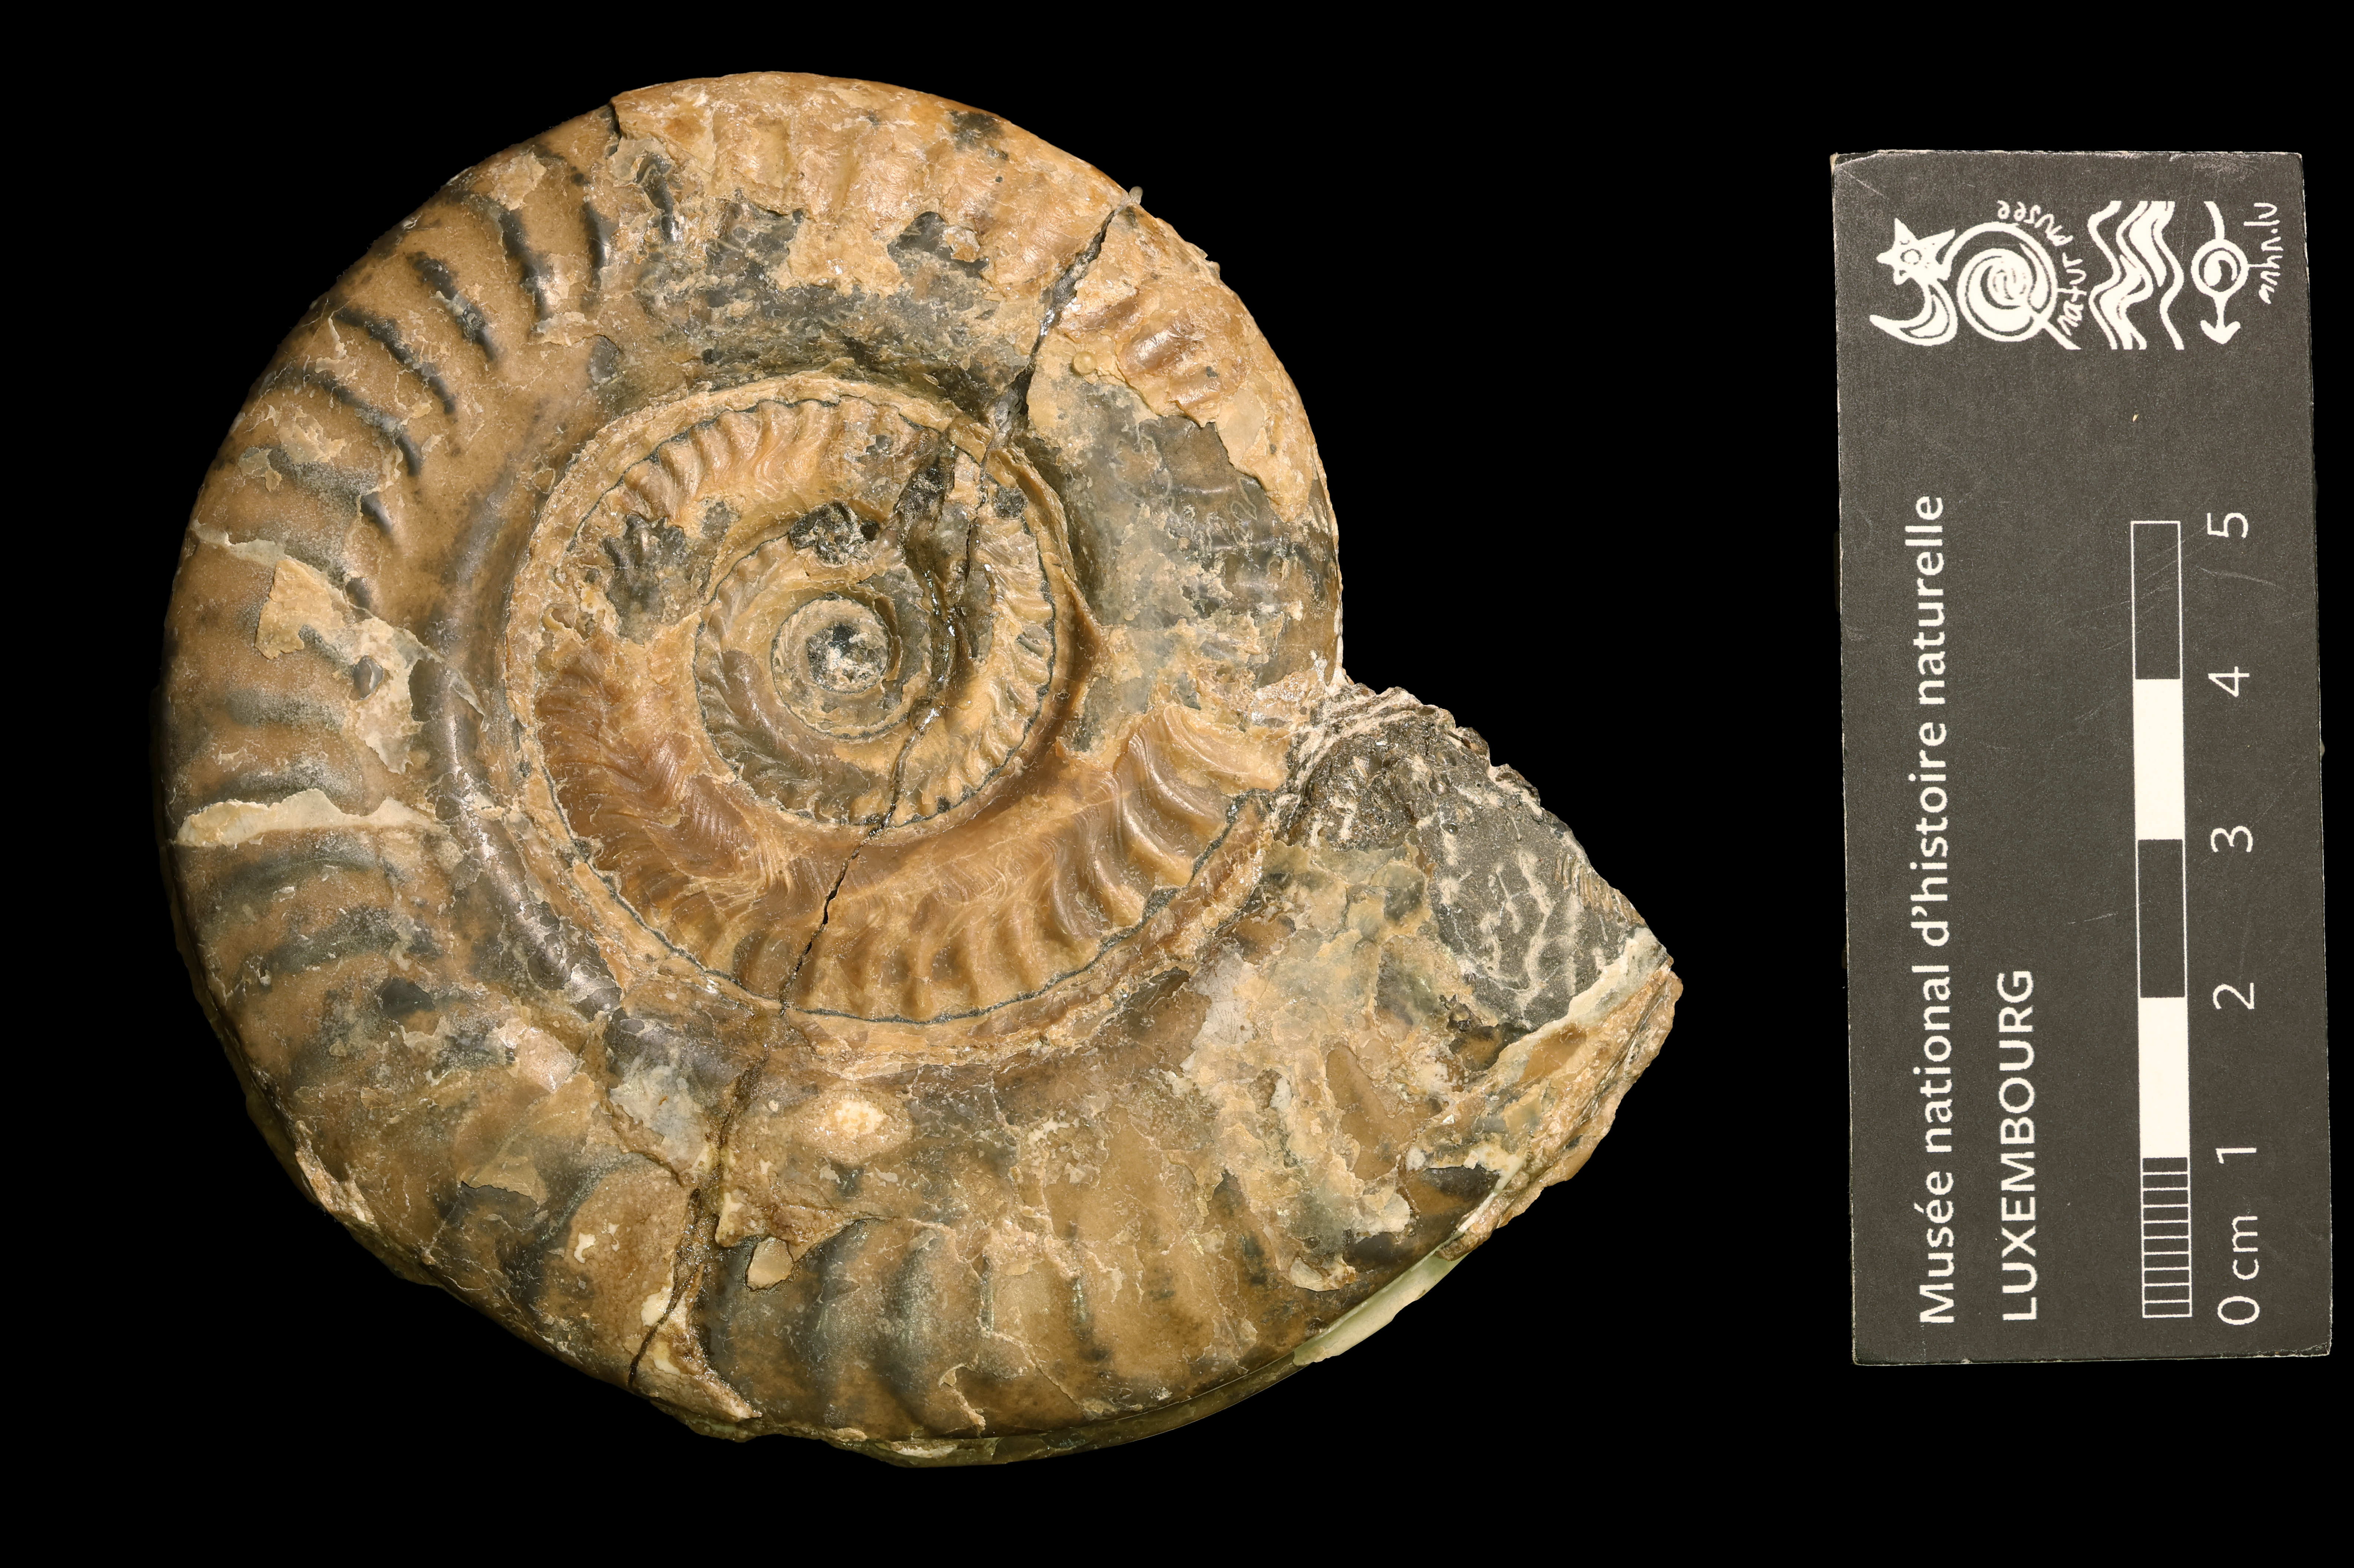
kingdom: Animalia
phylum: Mollusca
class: Cephalopoda
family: Hildoceratidae
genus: Hildoceras
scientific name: Hildoceras
